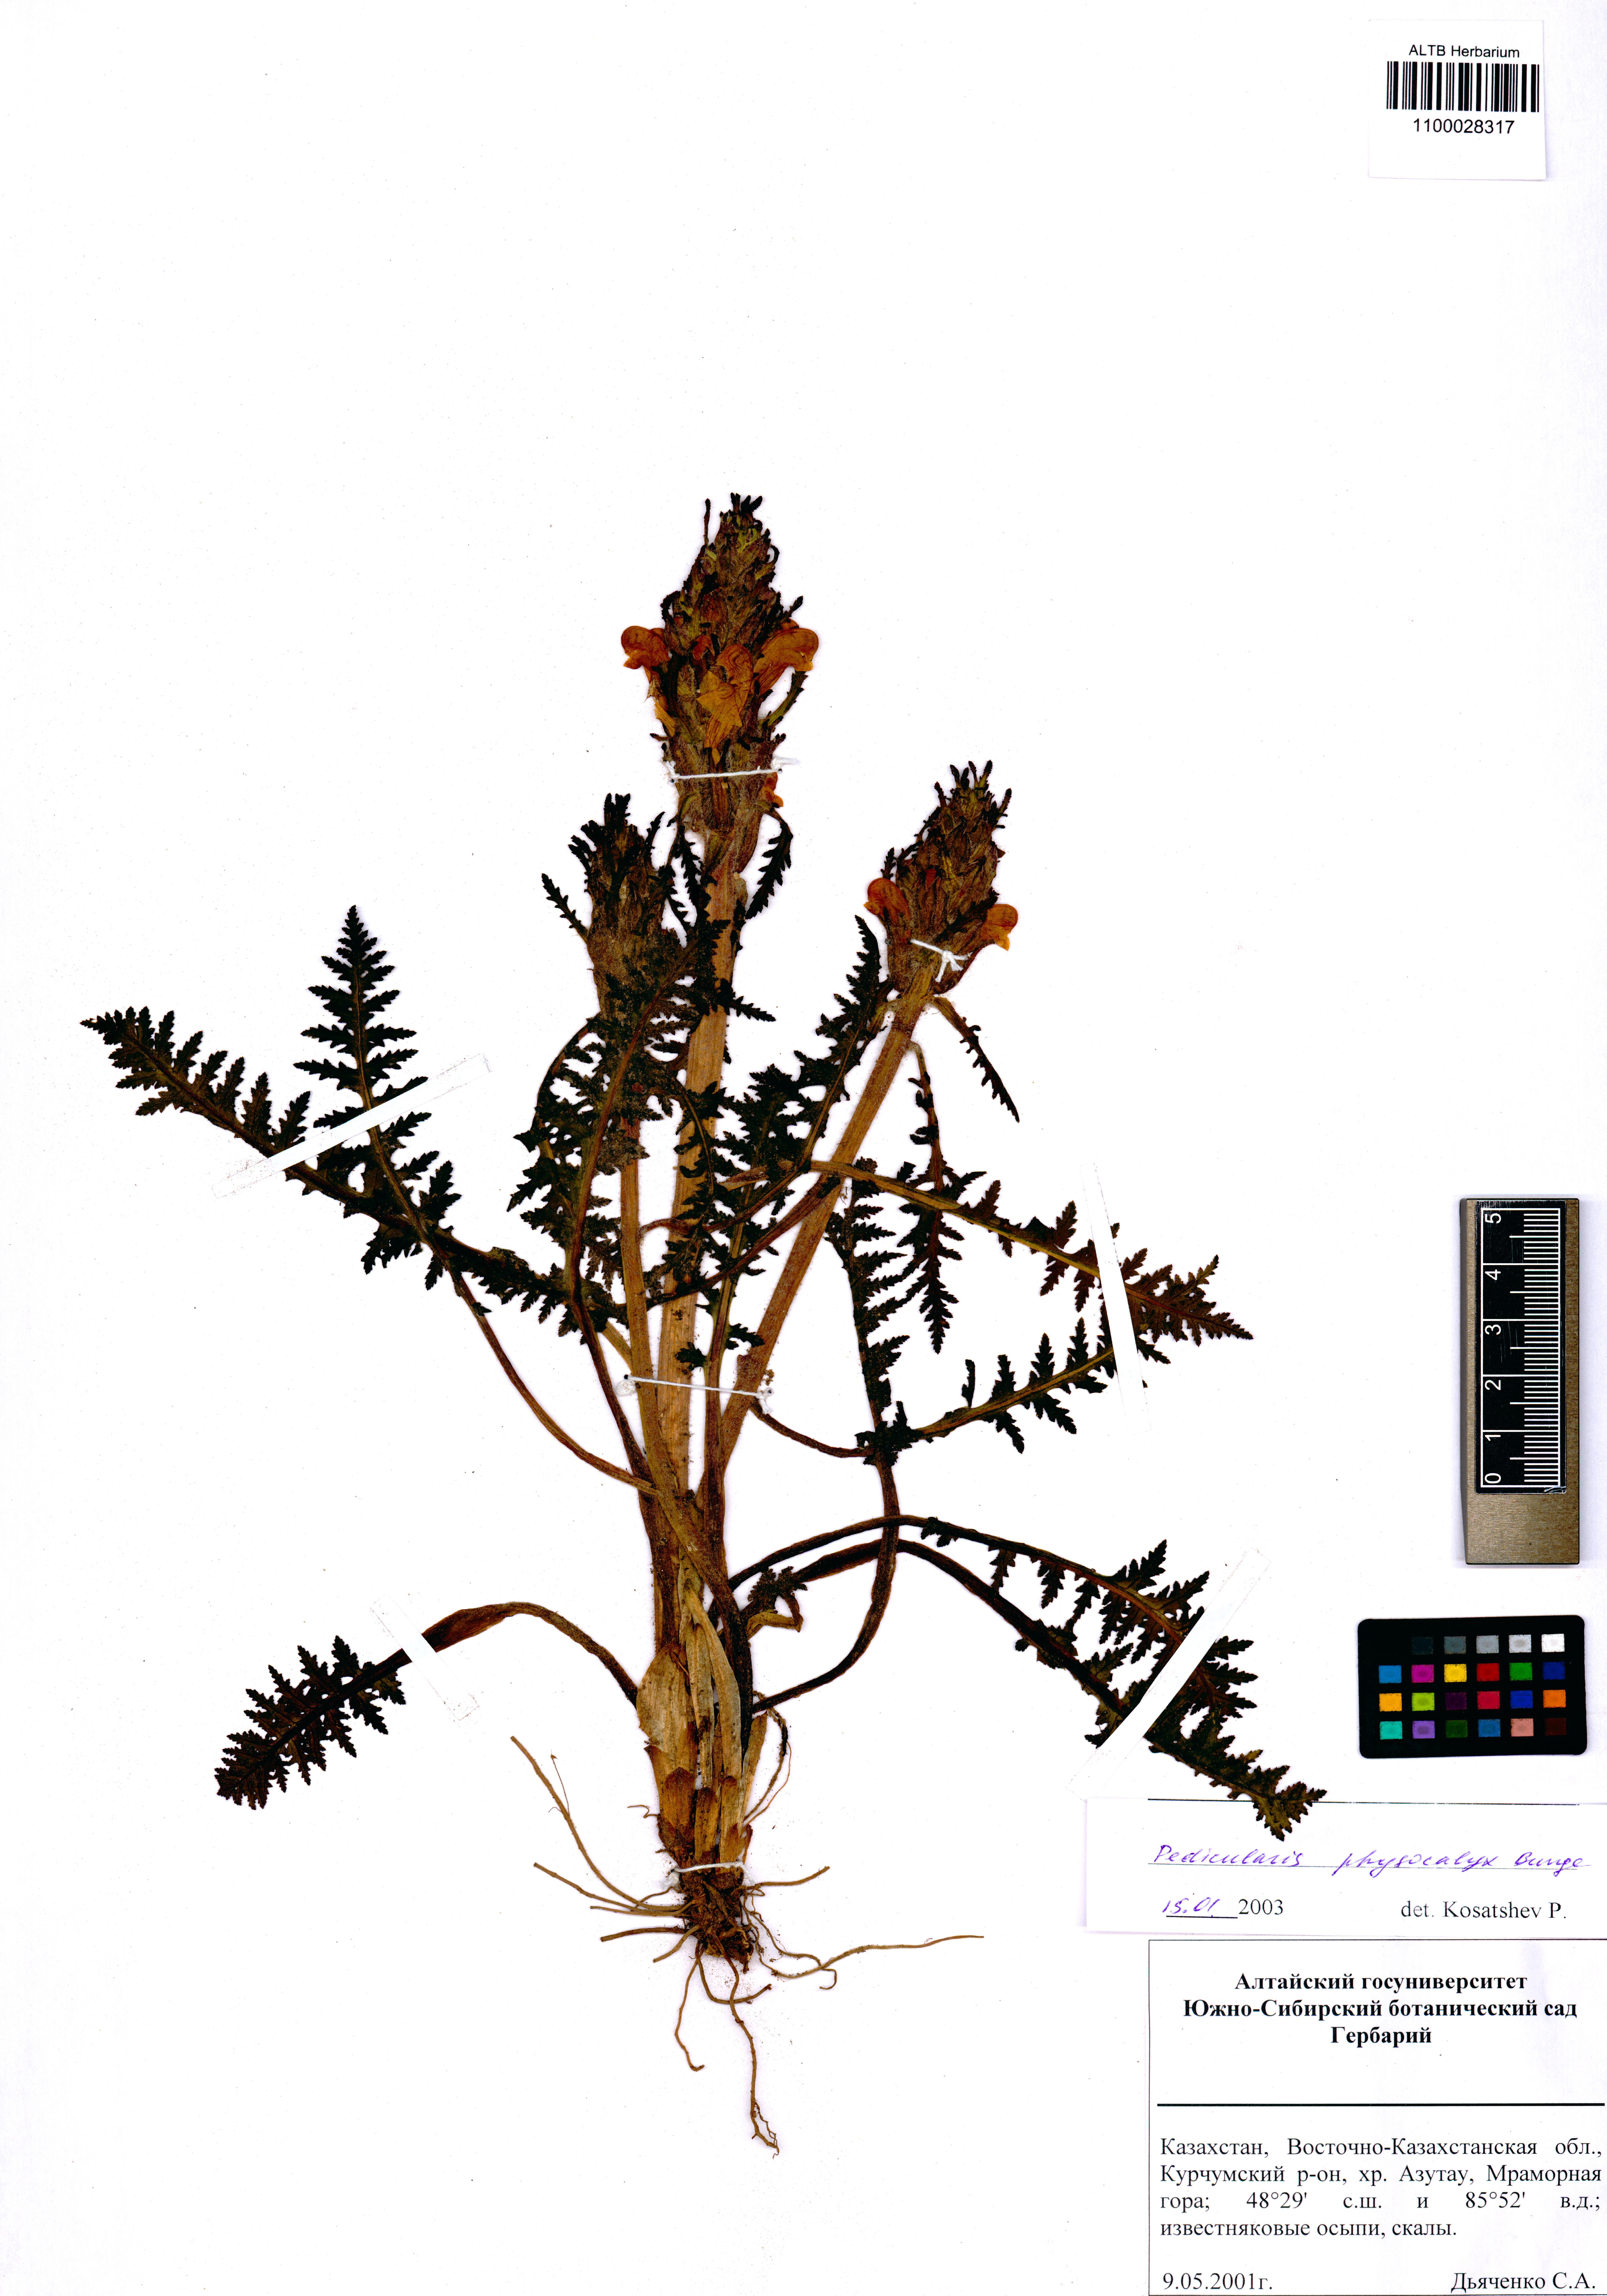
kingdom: Plantae
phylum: Tracheophyta
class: Magnoliopsida
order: Lamiales
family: Orobanchaceae
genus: Pedicularis
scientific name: Pedicularis physocalyx
